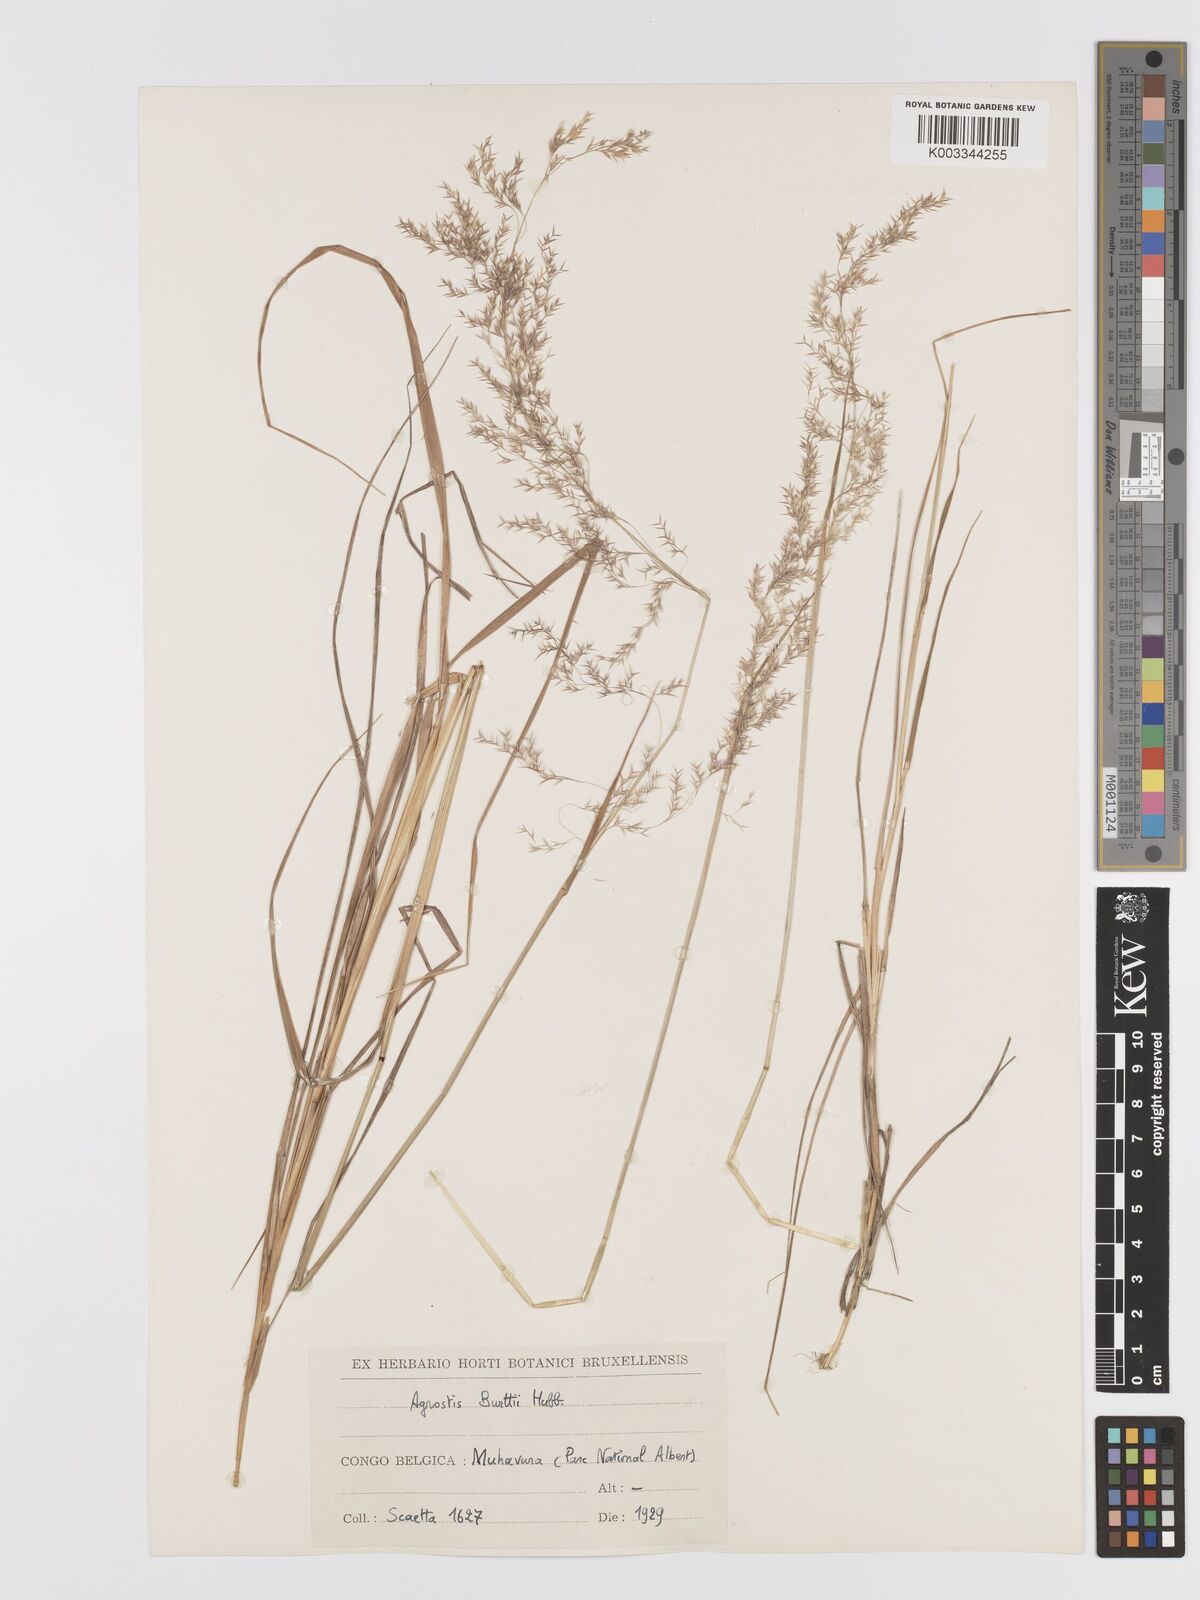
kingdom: Plantae
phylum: Tracheophyta
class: Liliopsida
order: Poales
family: Poaceae
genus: Agrostis
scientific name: Agrostis kilimandscharica
